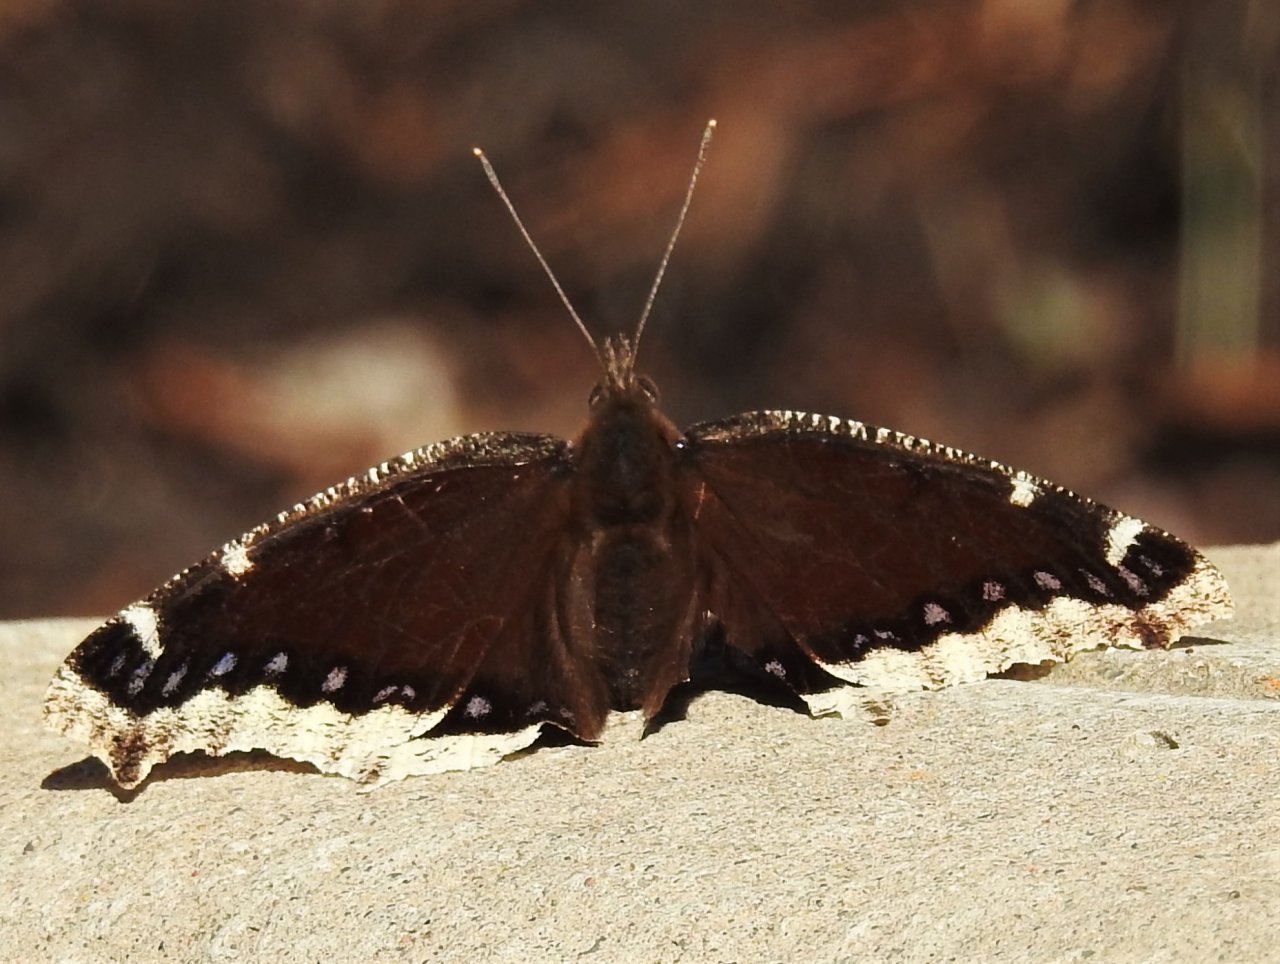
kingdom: Animalia
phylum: Arthropoda
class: Insecta
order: Lepidoptera
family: Nymphalidae
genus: Nymphalis
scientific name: Nymphalis antiopa
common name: Mourning Cloak
